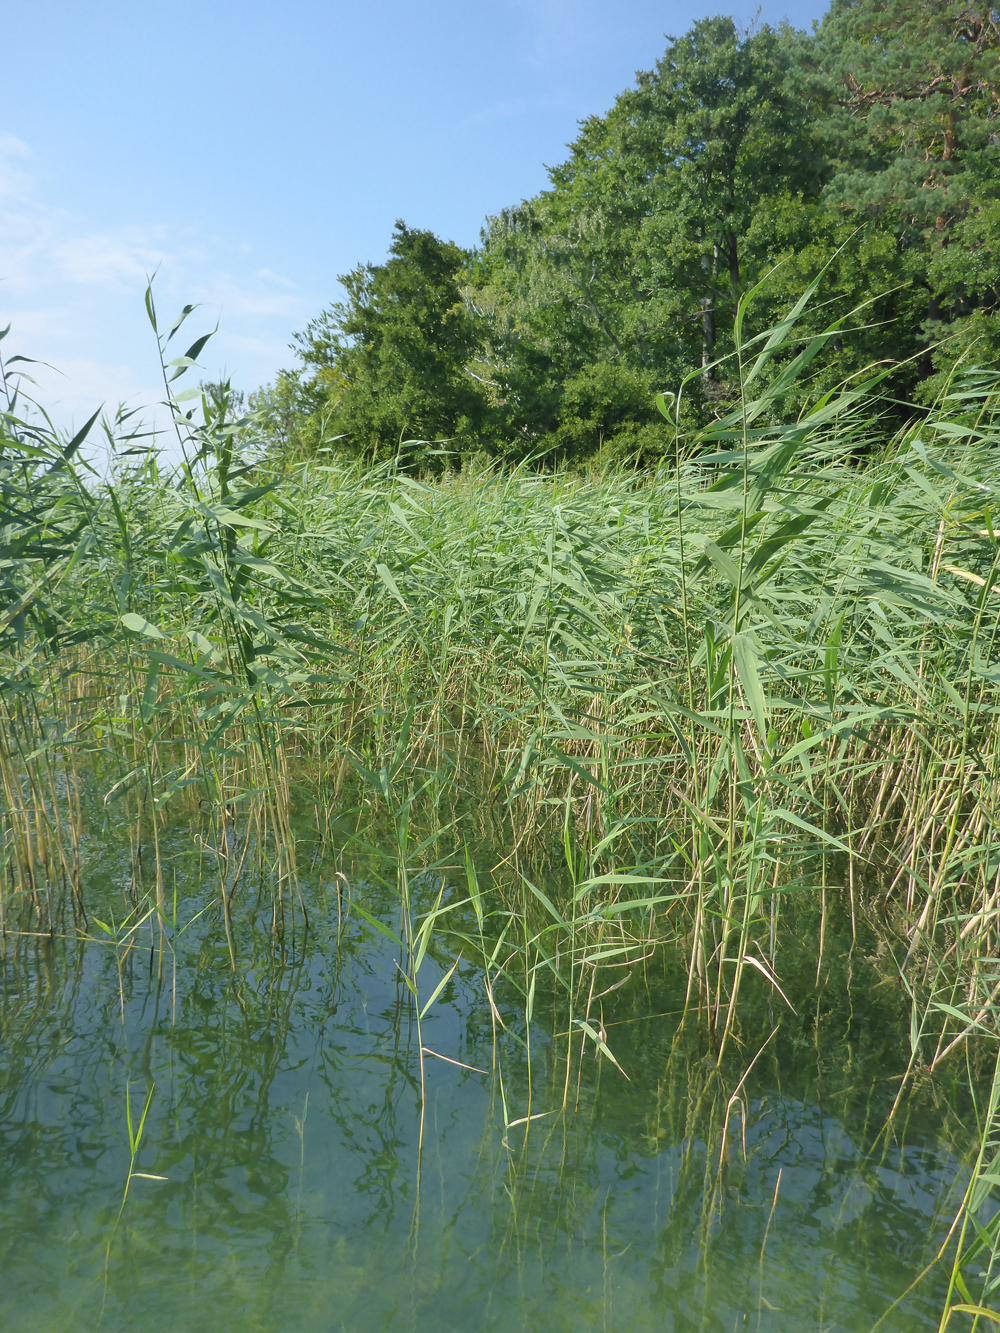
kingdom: Plantae
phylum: Tracheophyta
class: Liliopsida
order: Poales
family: Poaceae
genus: Phragmites
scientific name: Phragmites australis
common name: Common reed
